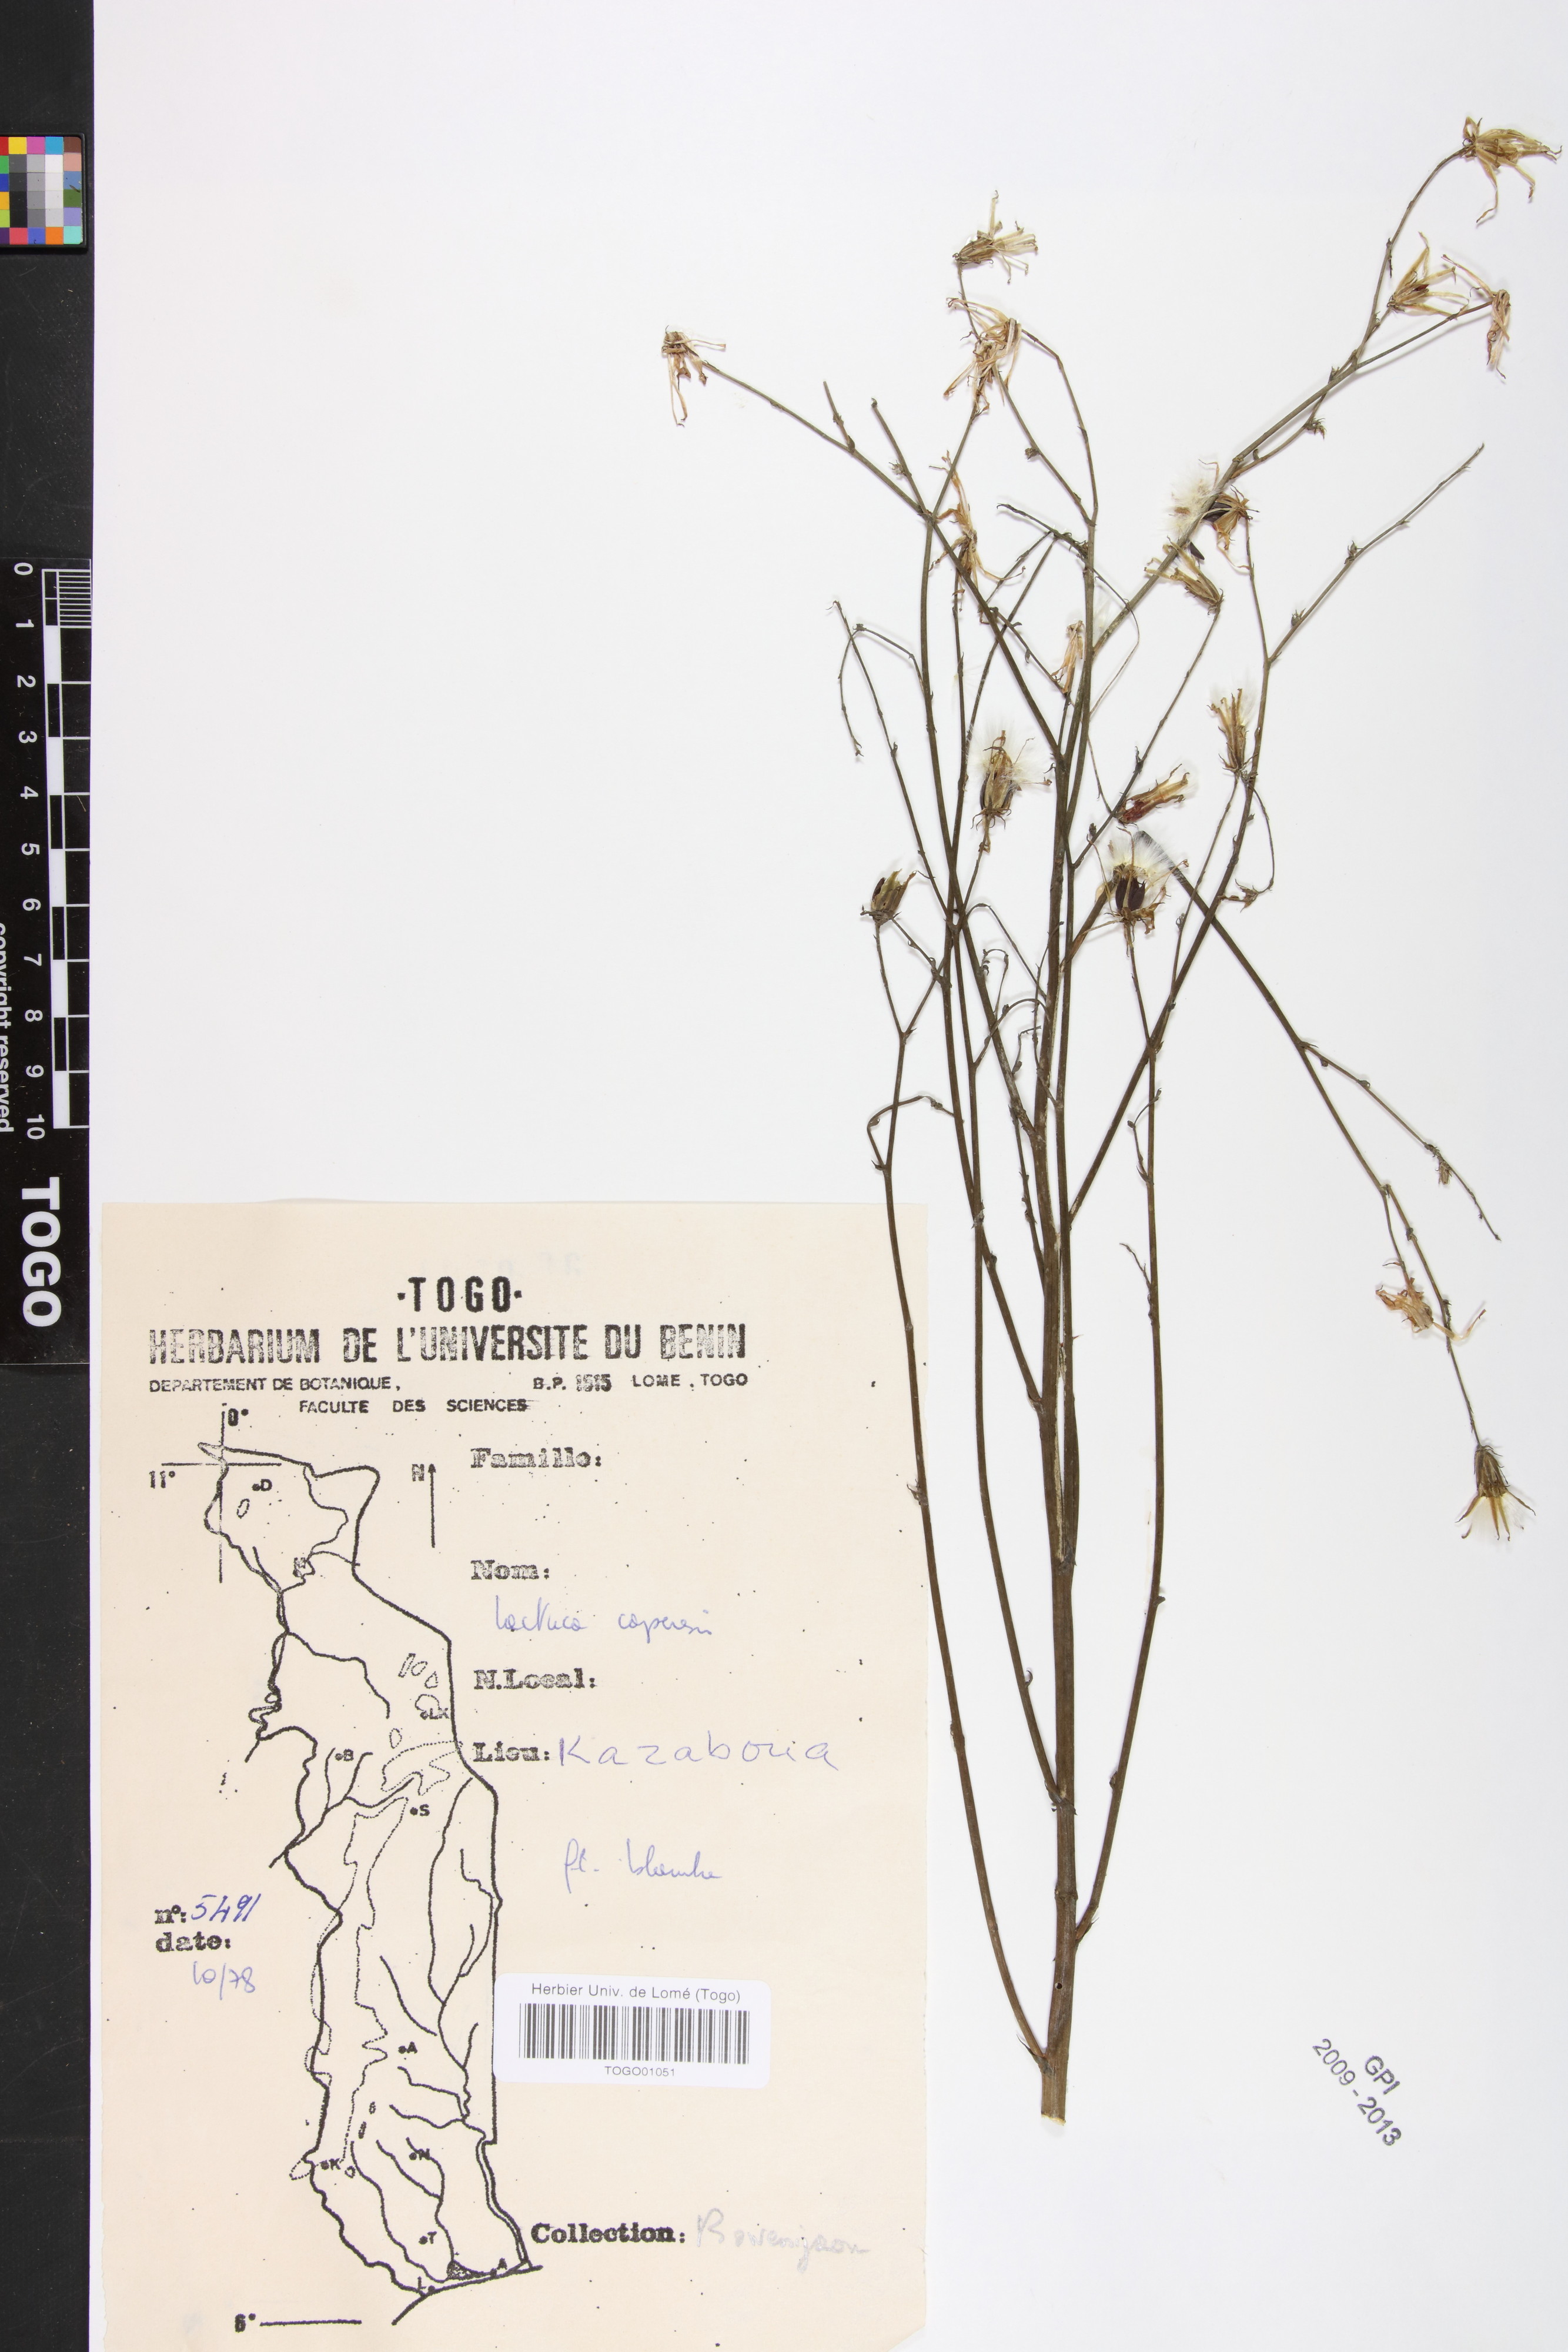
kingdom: Plantae
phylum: Tracheophyta
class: Magnoliopsida
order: Asterales
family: Asteraceae
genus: Lactuca
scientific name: Lactuca inermis
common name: Wild lettuce
